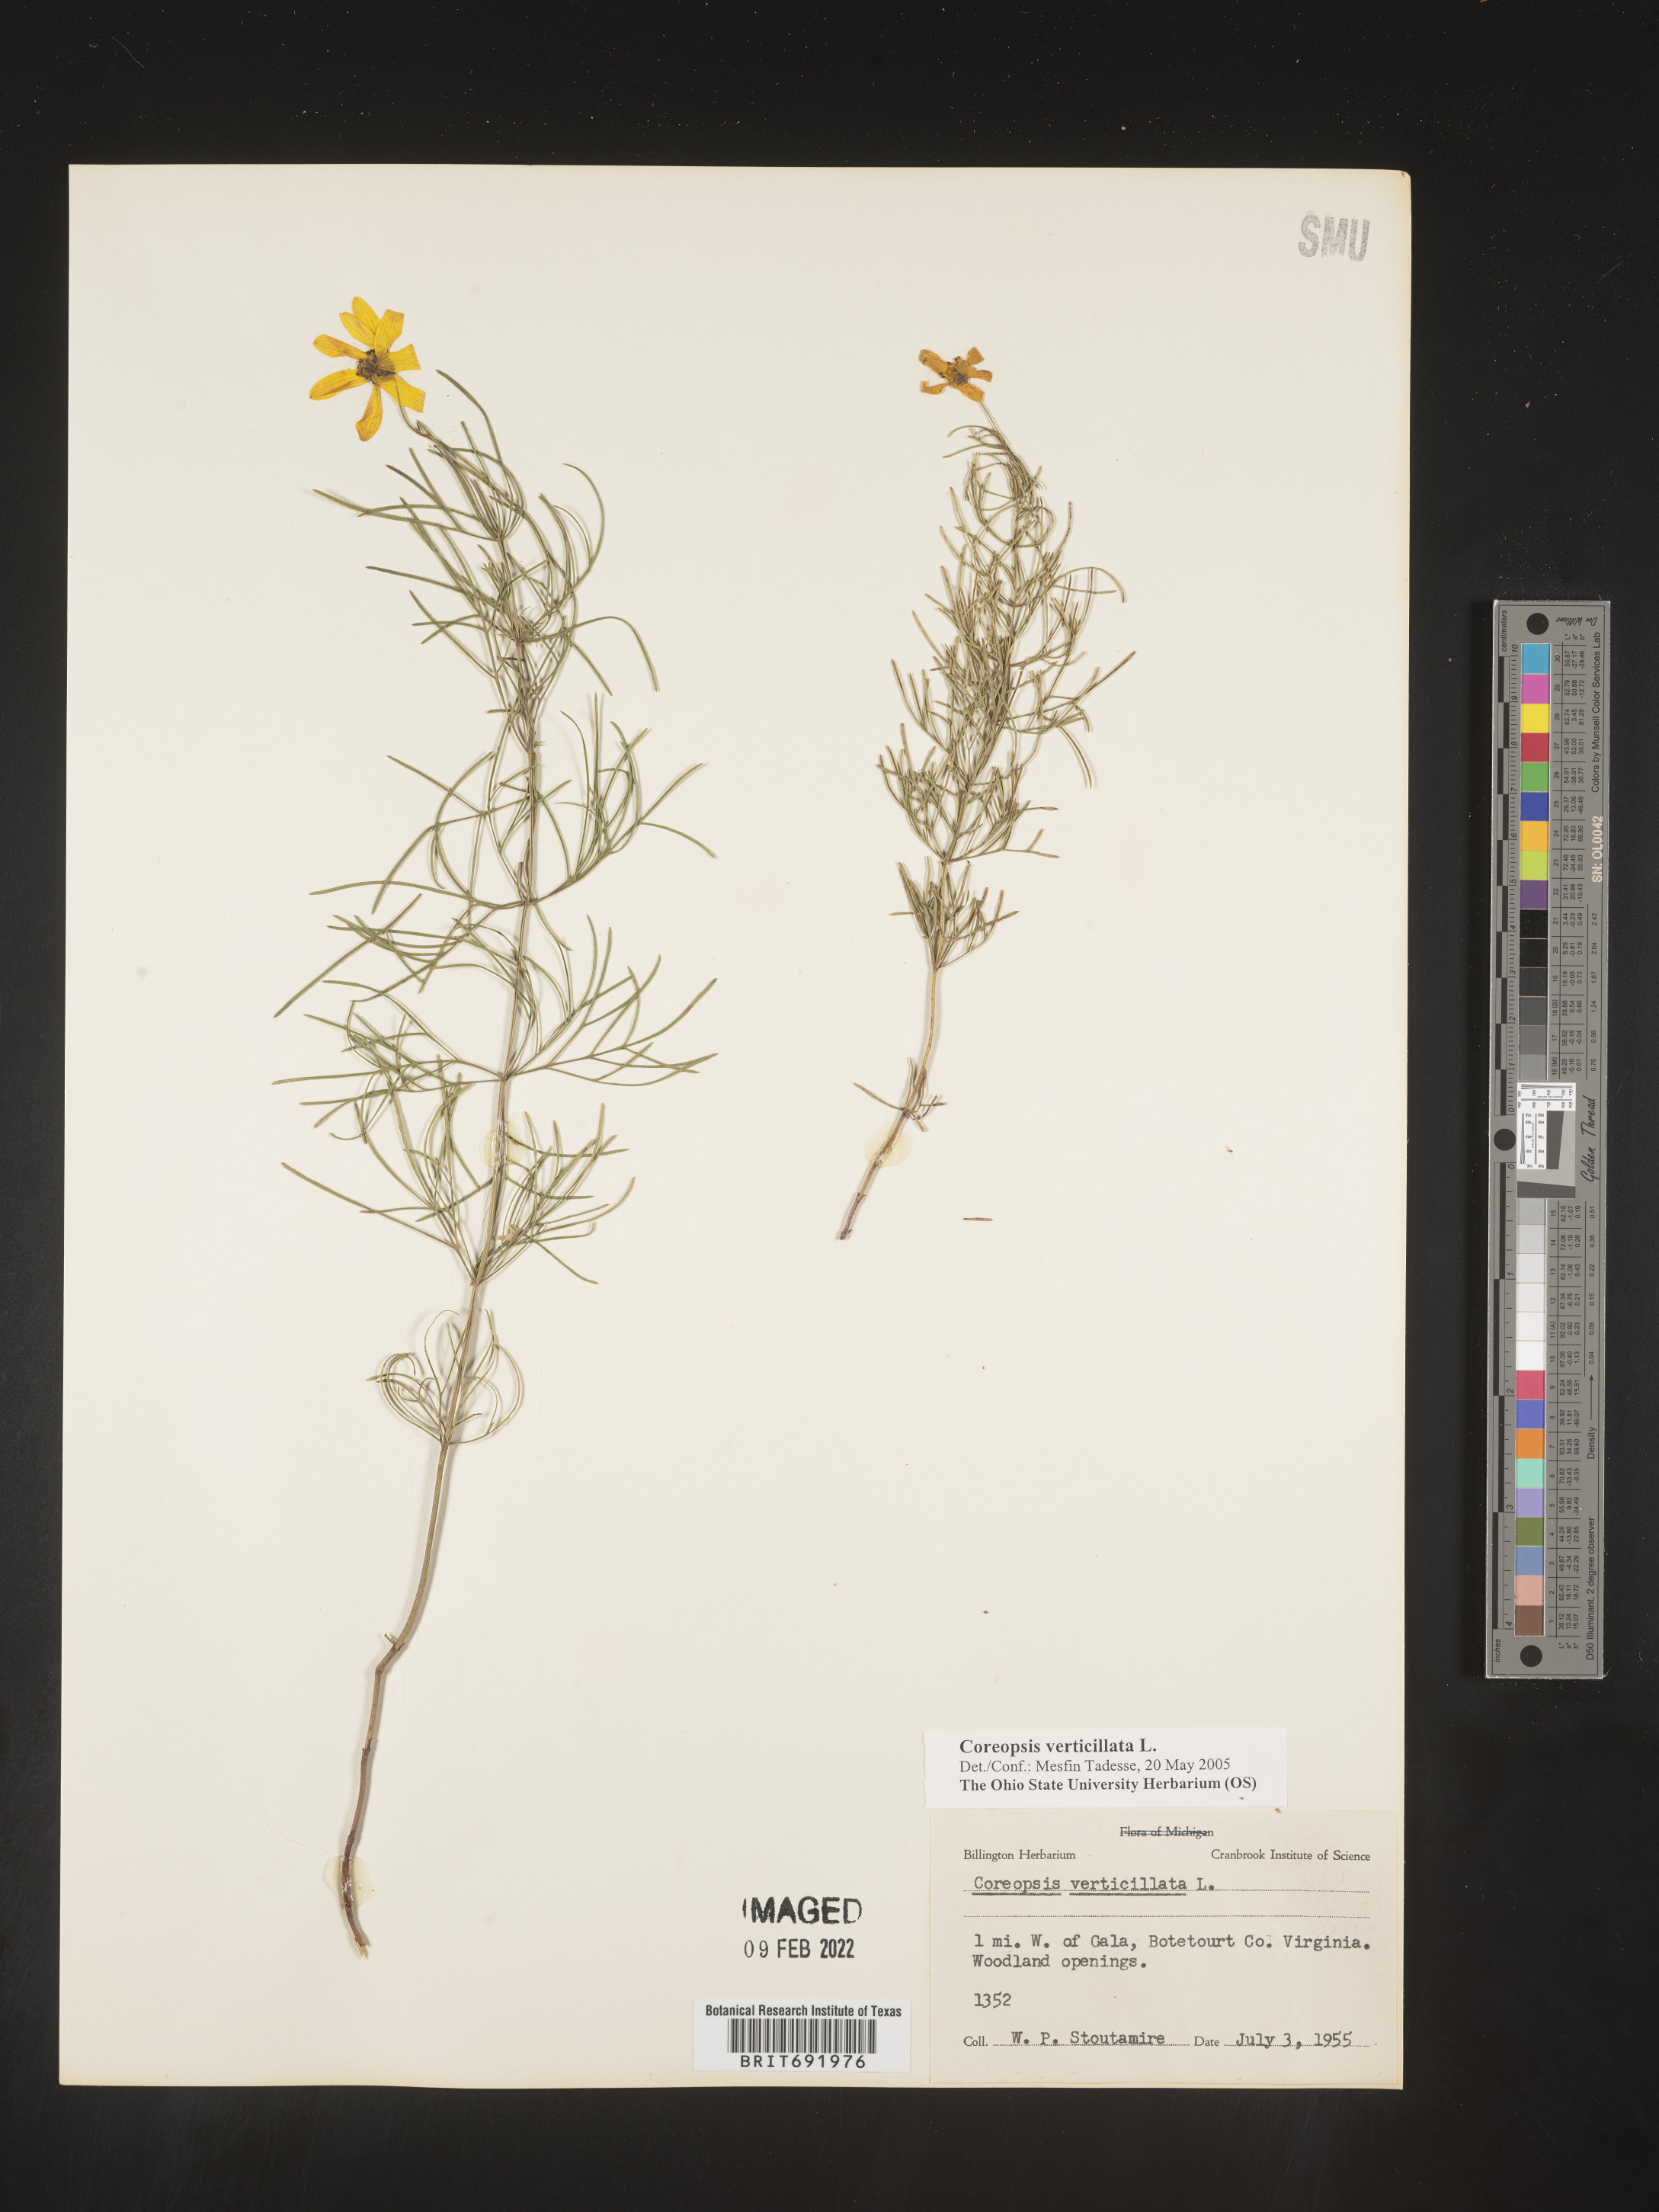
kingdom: Plantae
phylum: Tracheophyta
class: Magnoliopsida
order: Asterales
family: Asteraceae
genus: Coreopsis
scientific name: Coreopsis verticillata
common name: Whorled tickseed
